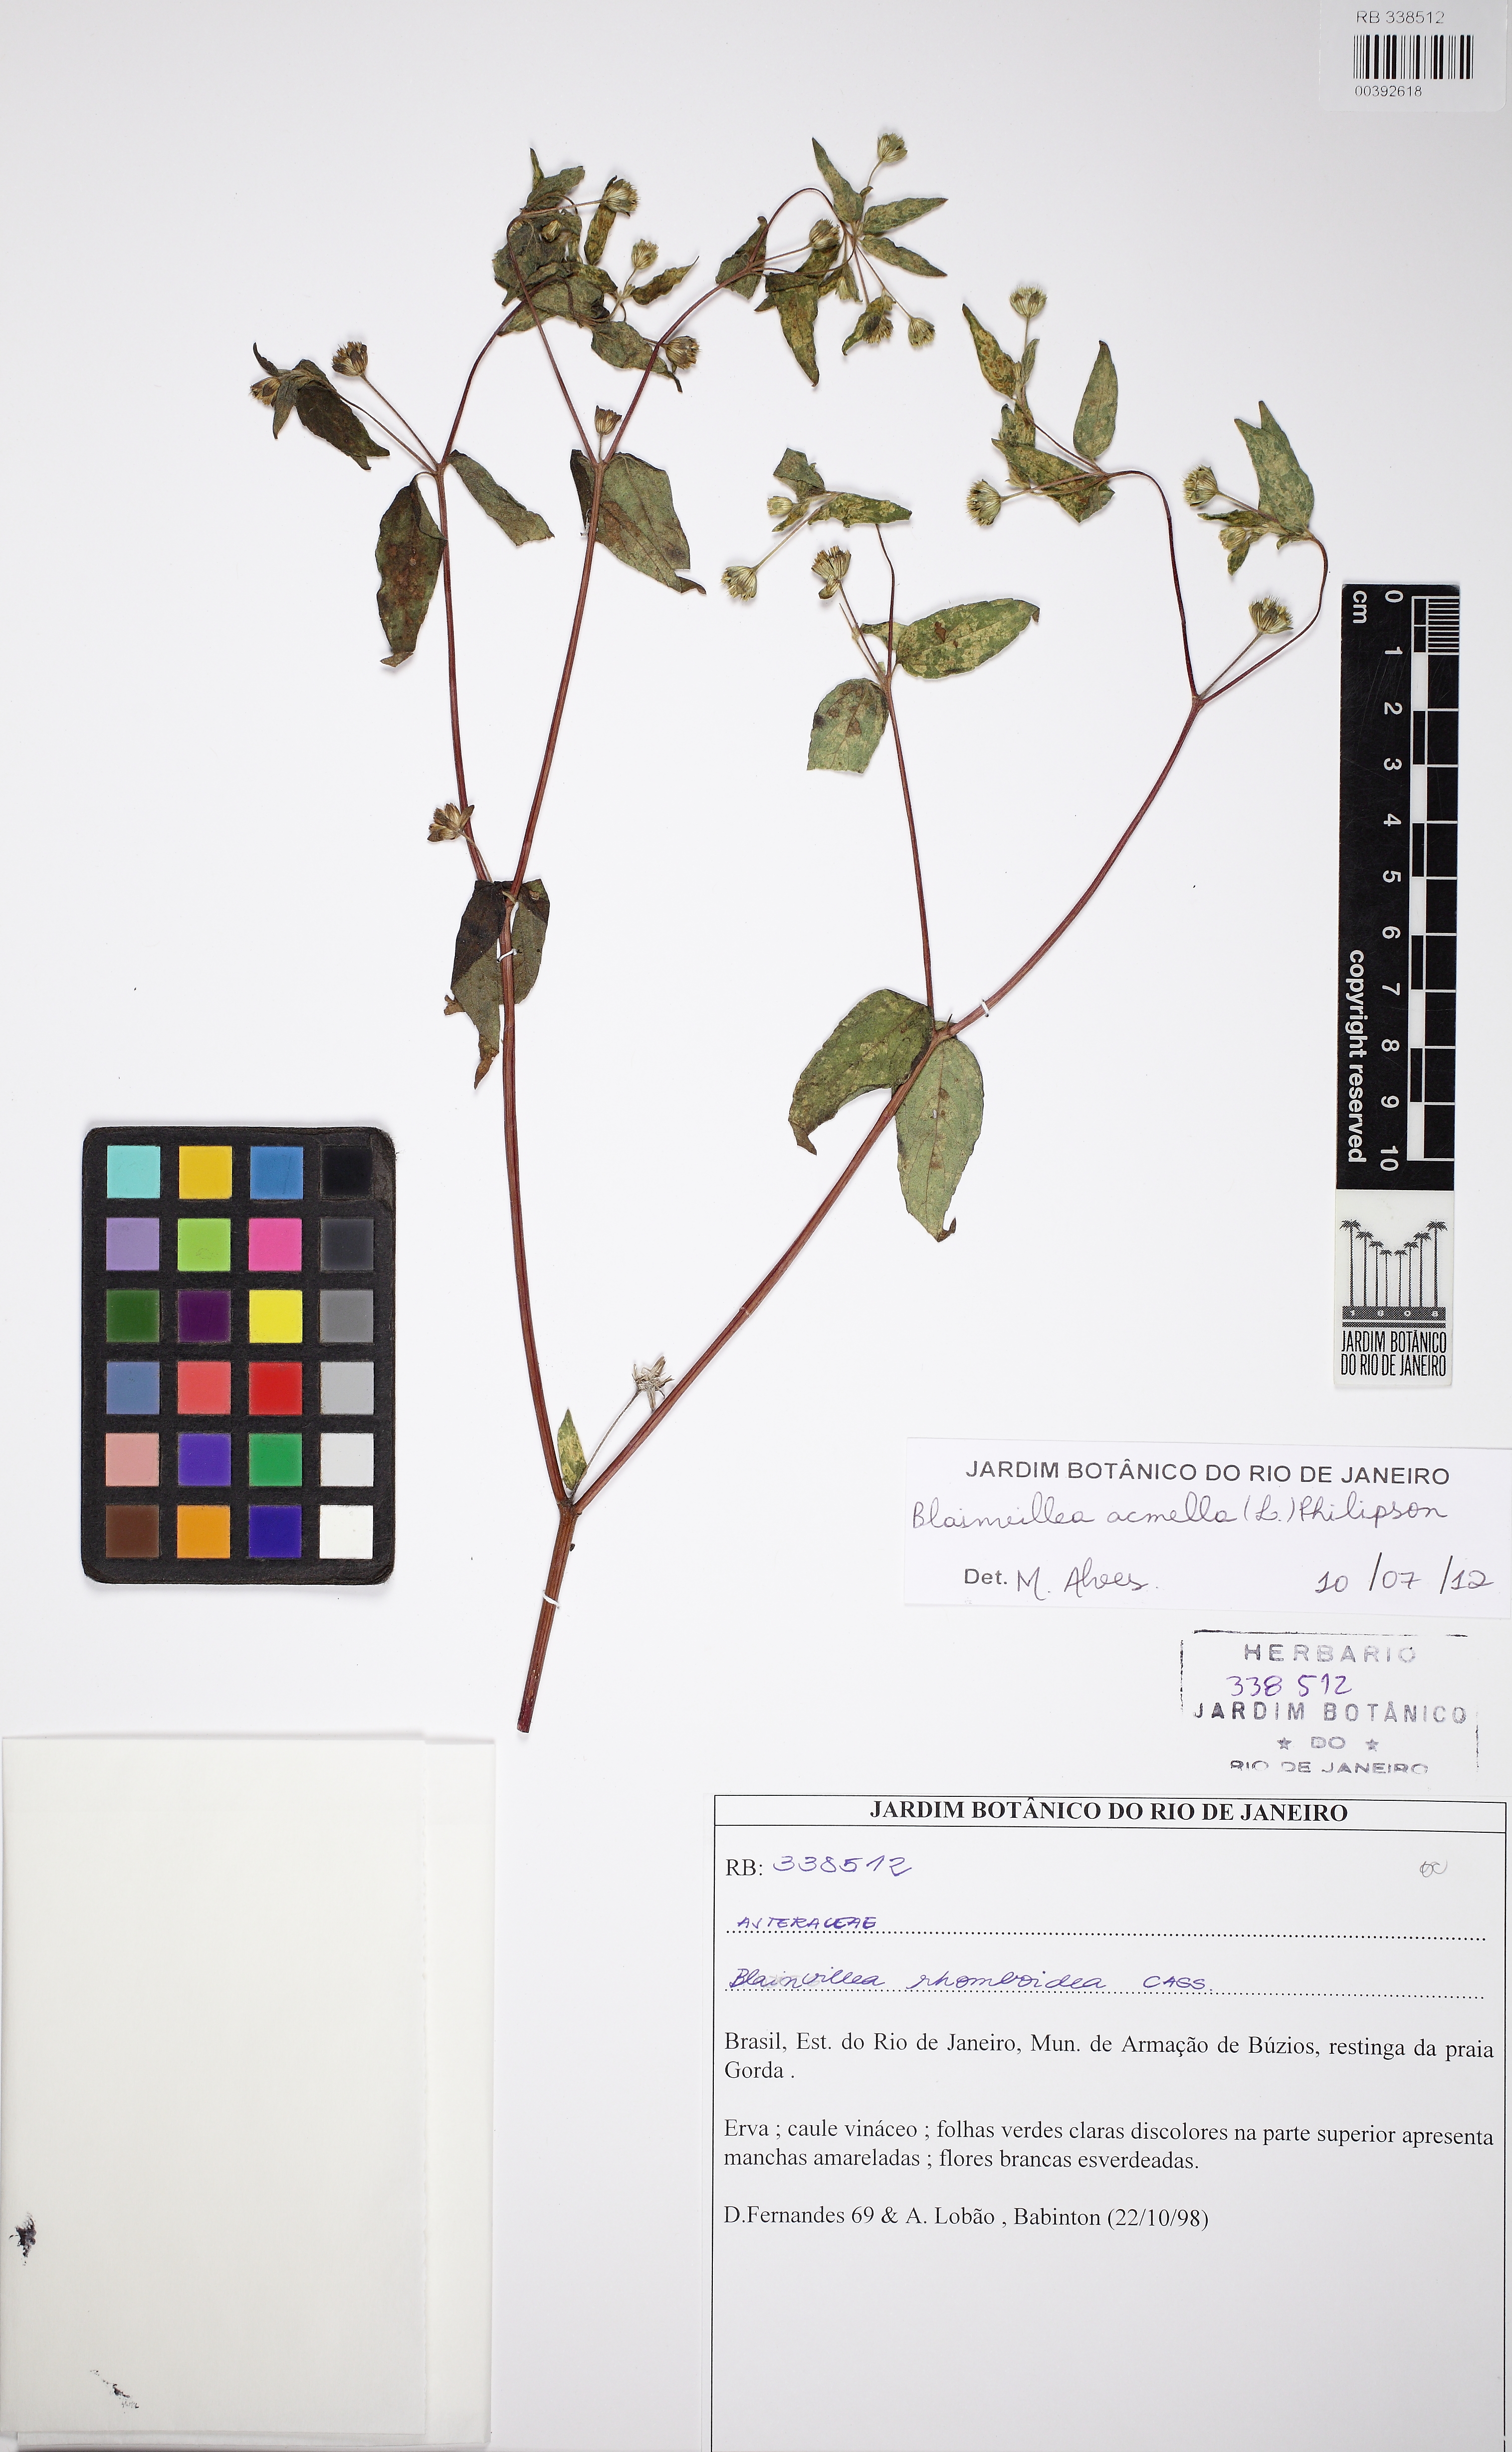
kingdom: Plantae
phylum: Tracheophyta
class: Magnoliopsida
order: Asterales
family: Asteraceae
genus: Blainvillea
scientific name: Blainvillea acmella
